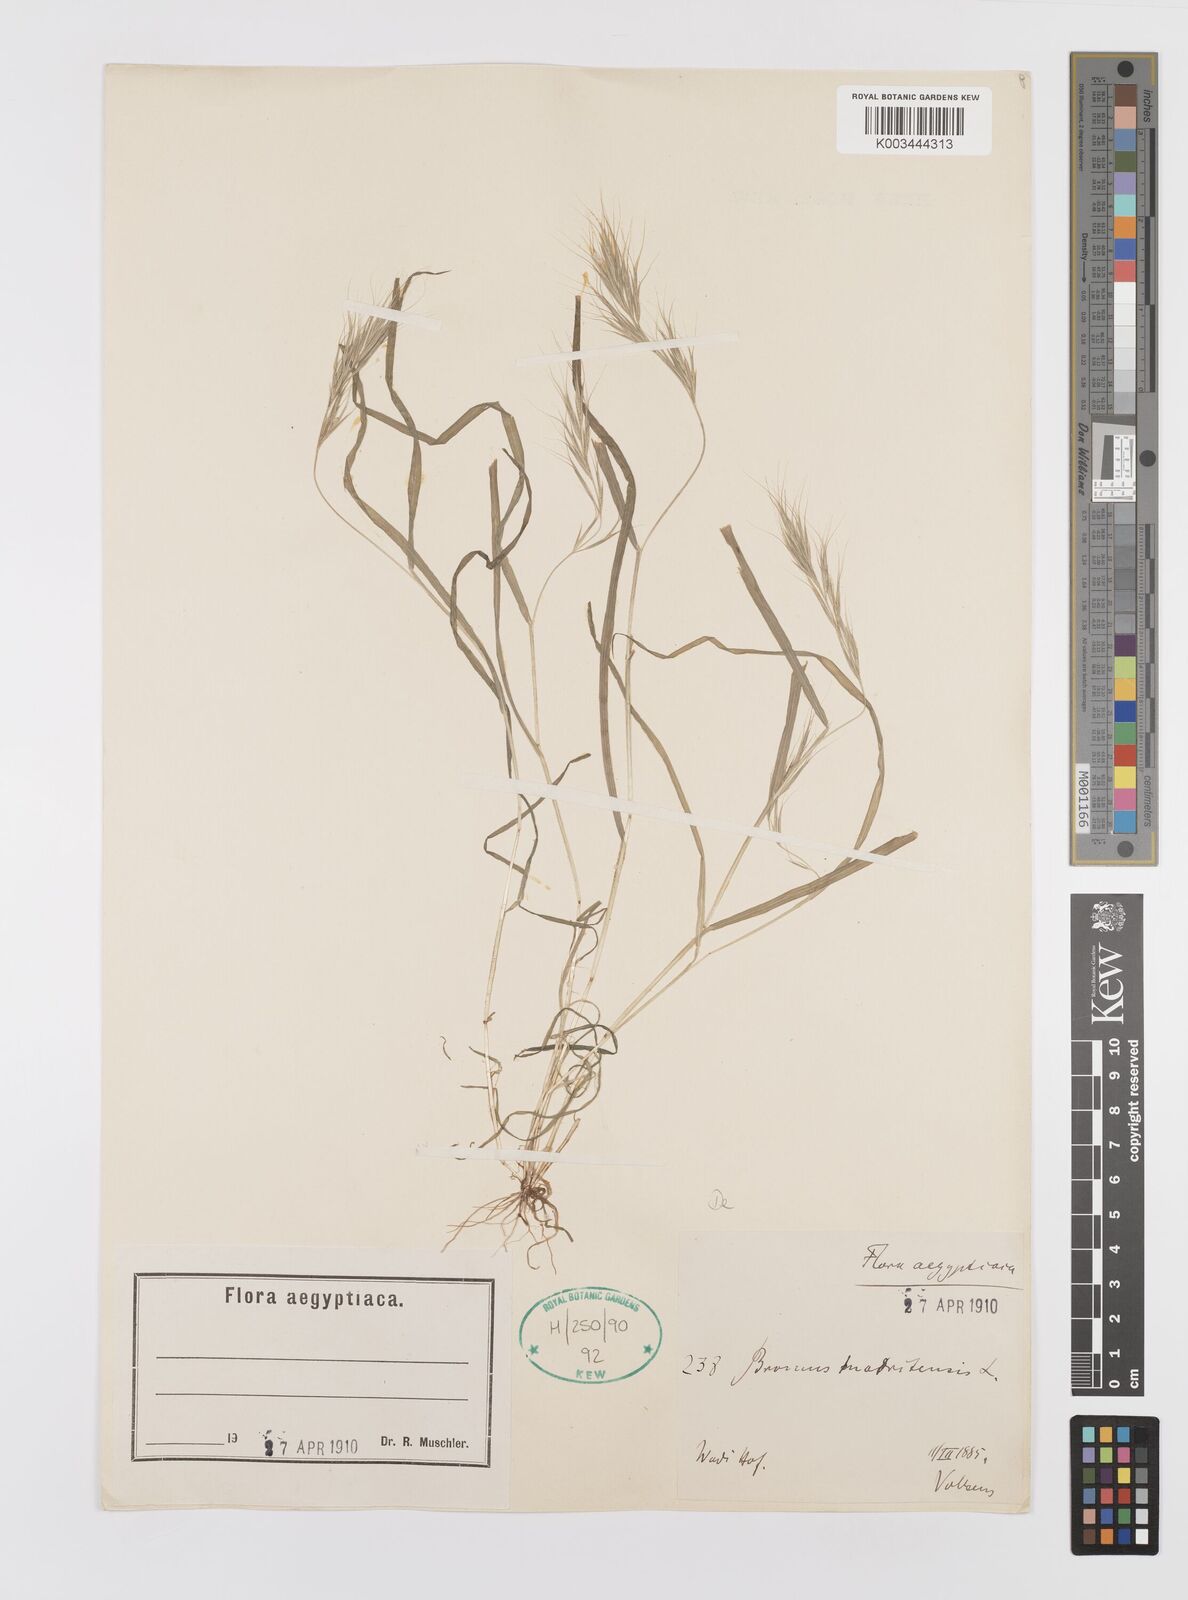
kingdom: Plantae
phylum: Tracheophyta
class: Liliopsida
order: Poales
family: Poaceae
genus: Bromus
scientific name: Bromus madritensis
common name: Compact brome
